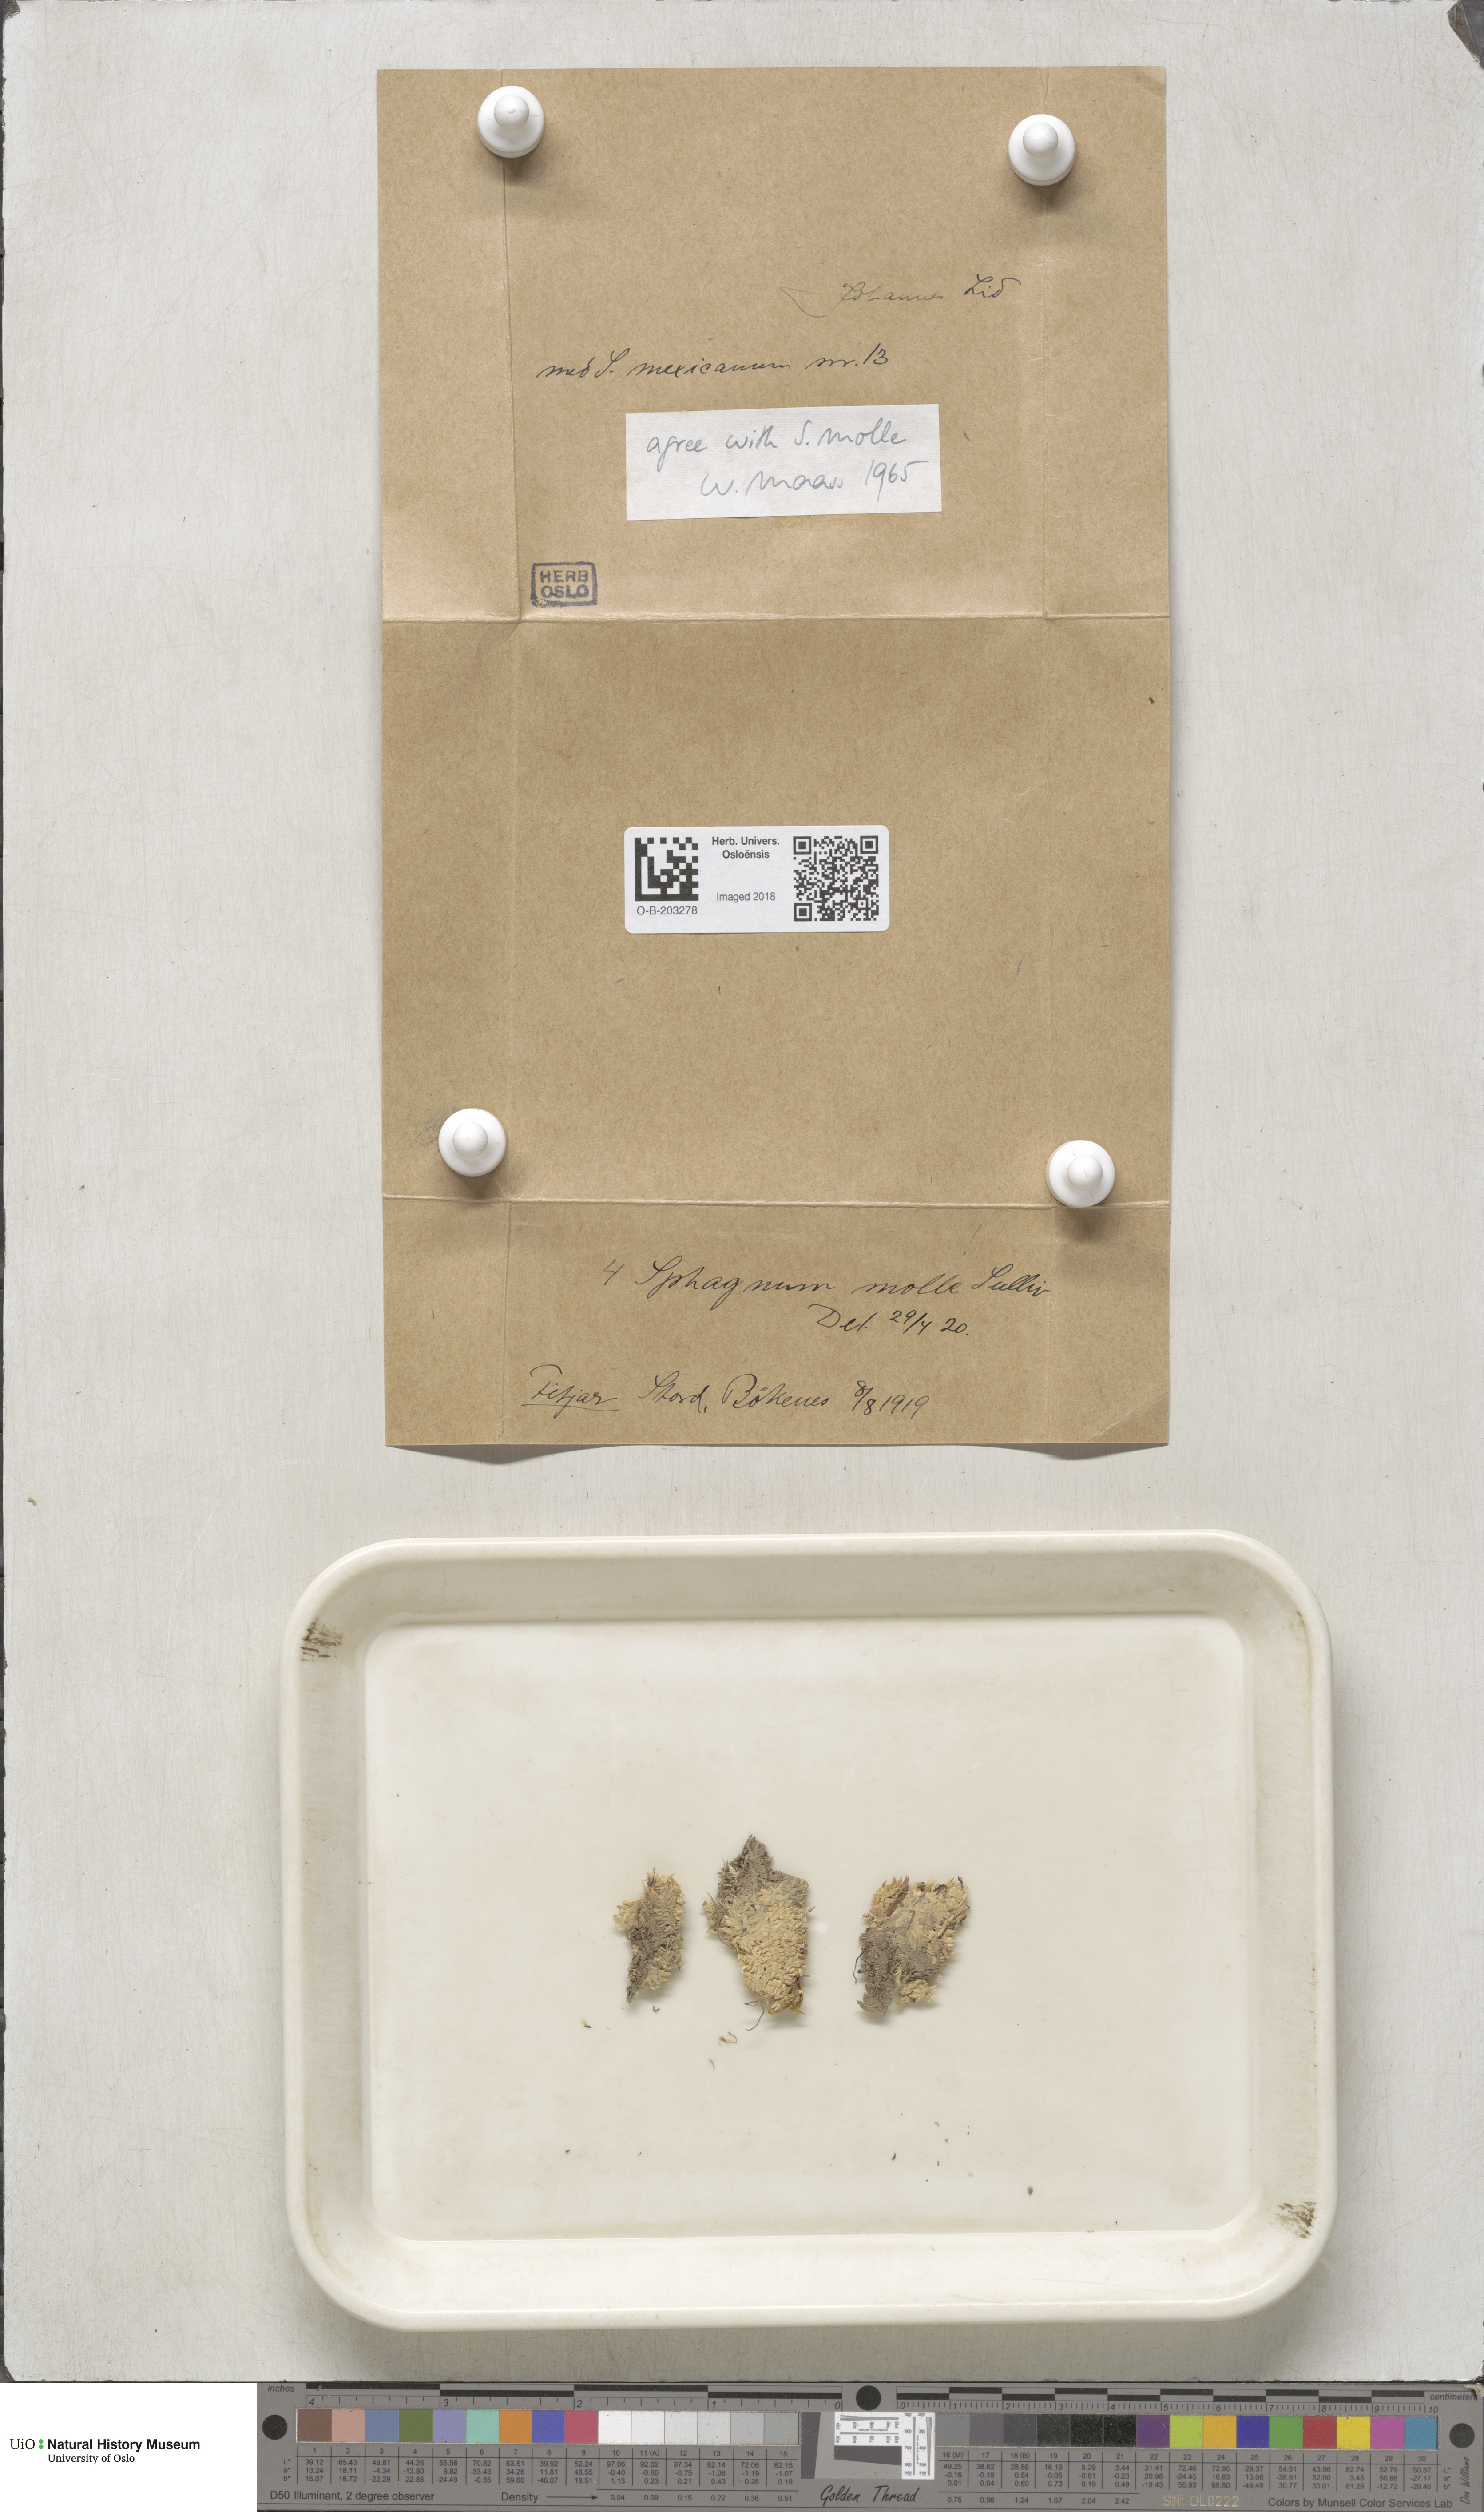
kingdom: Plantae
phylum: Bryophyta
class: Sphagnopsida
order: Sphagnales
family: Sphagnaceae
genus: Sphagnum
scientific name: Sphagnum molle
